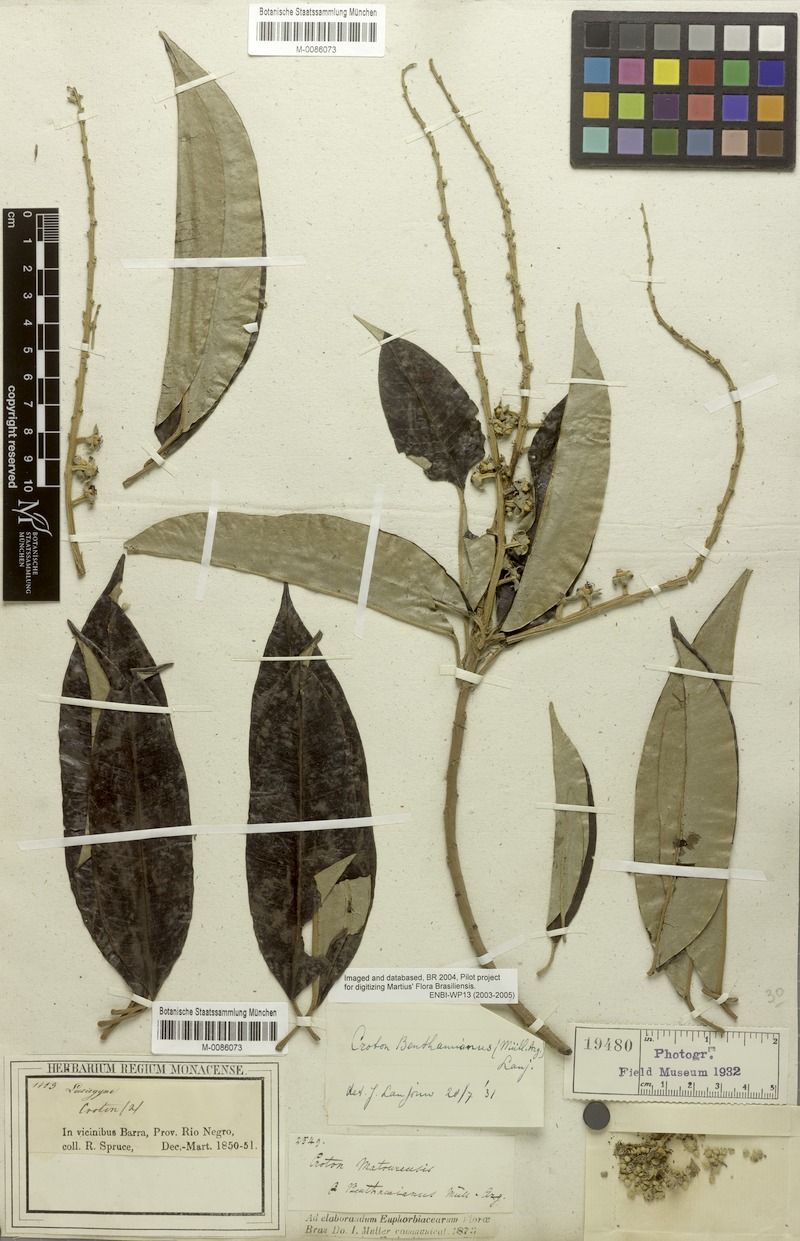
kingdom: Plantae
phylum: Tracheophyta
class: Magnoliopsida
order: Malpighiales
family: Euphorbiaceae
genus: Croton
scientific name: Croton matourensis
